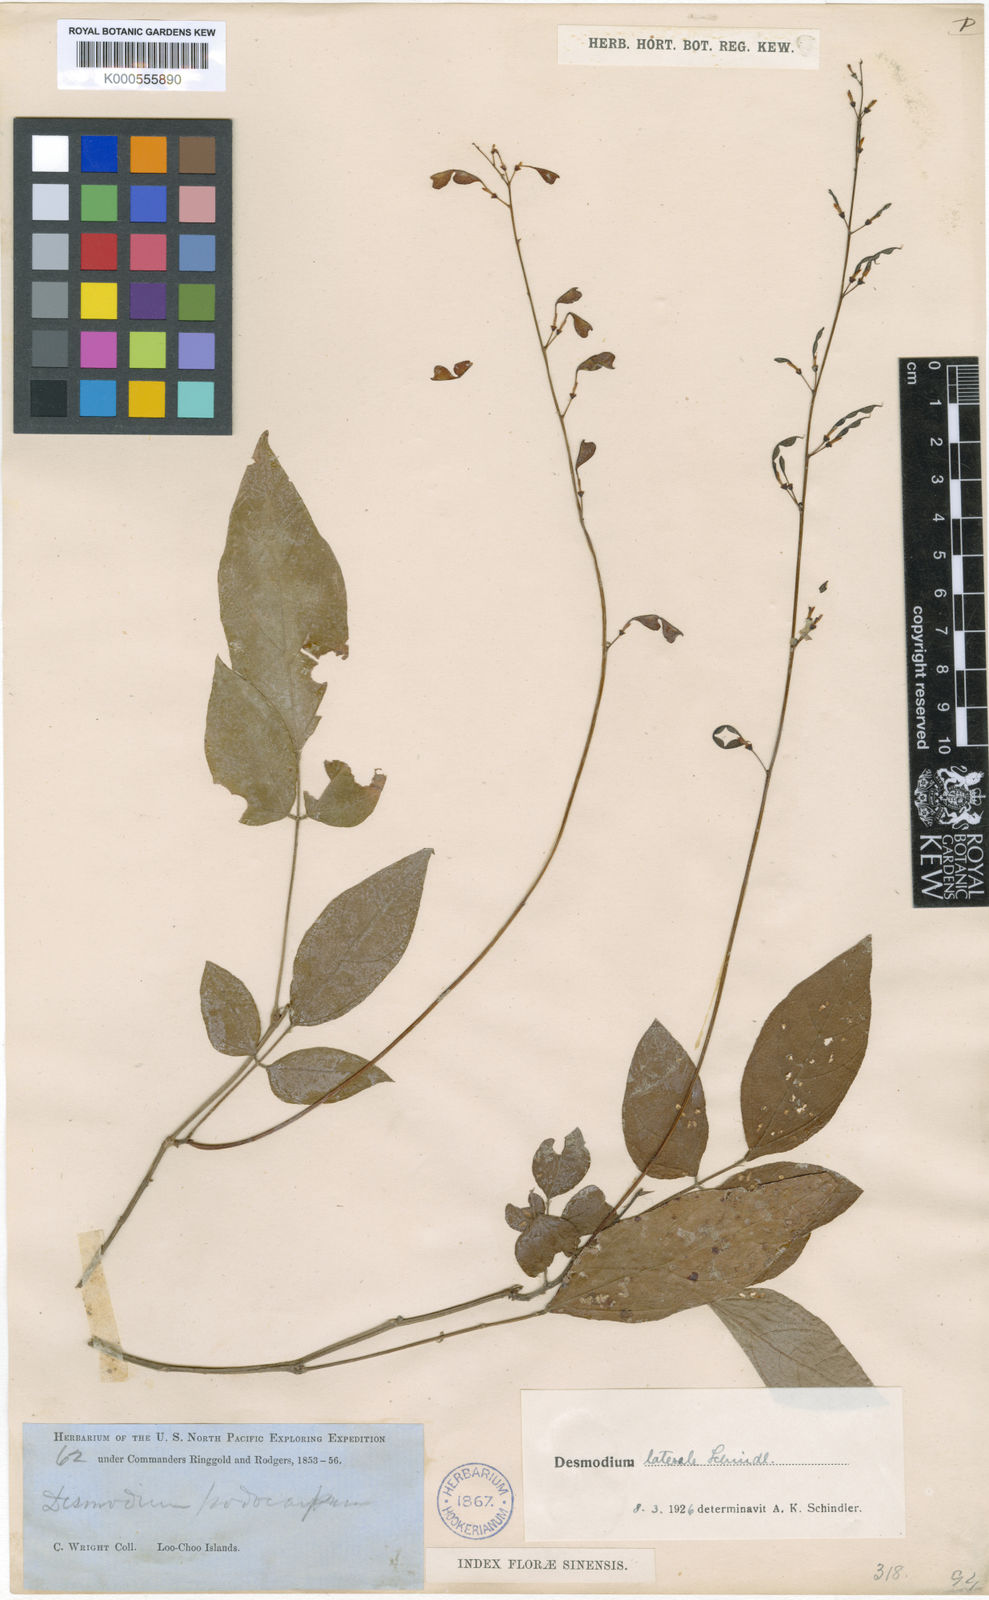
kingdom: Plantae
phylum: Tracheophyta
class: Magnoliopsida
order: Fabales
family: Fabaceae
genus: Hylodesmum
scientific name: Hylodesmum laterale
